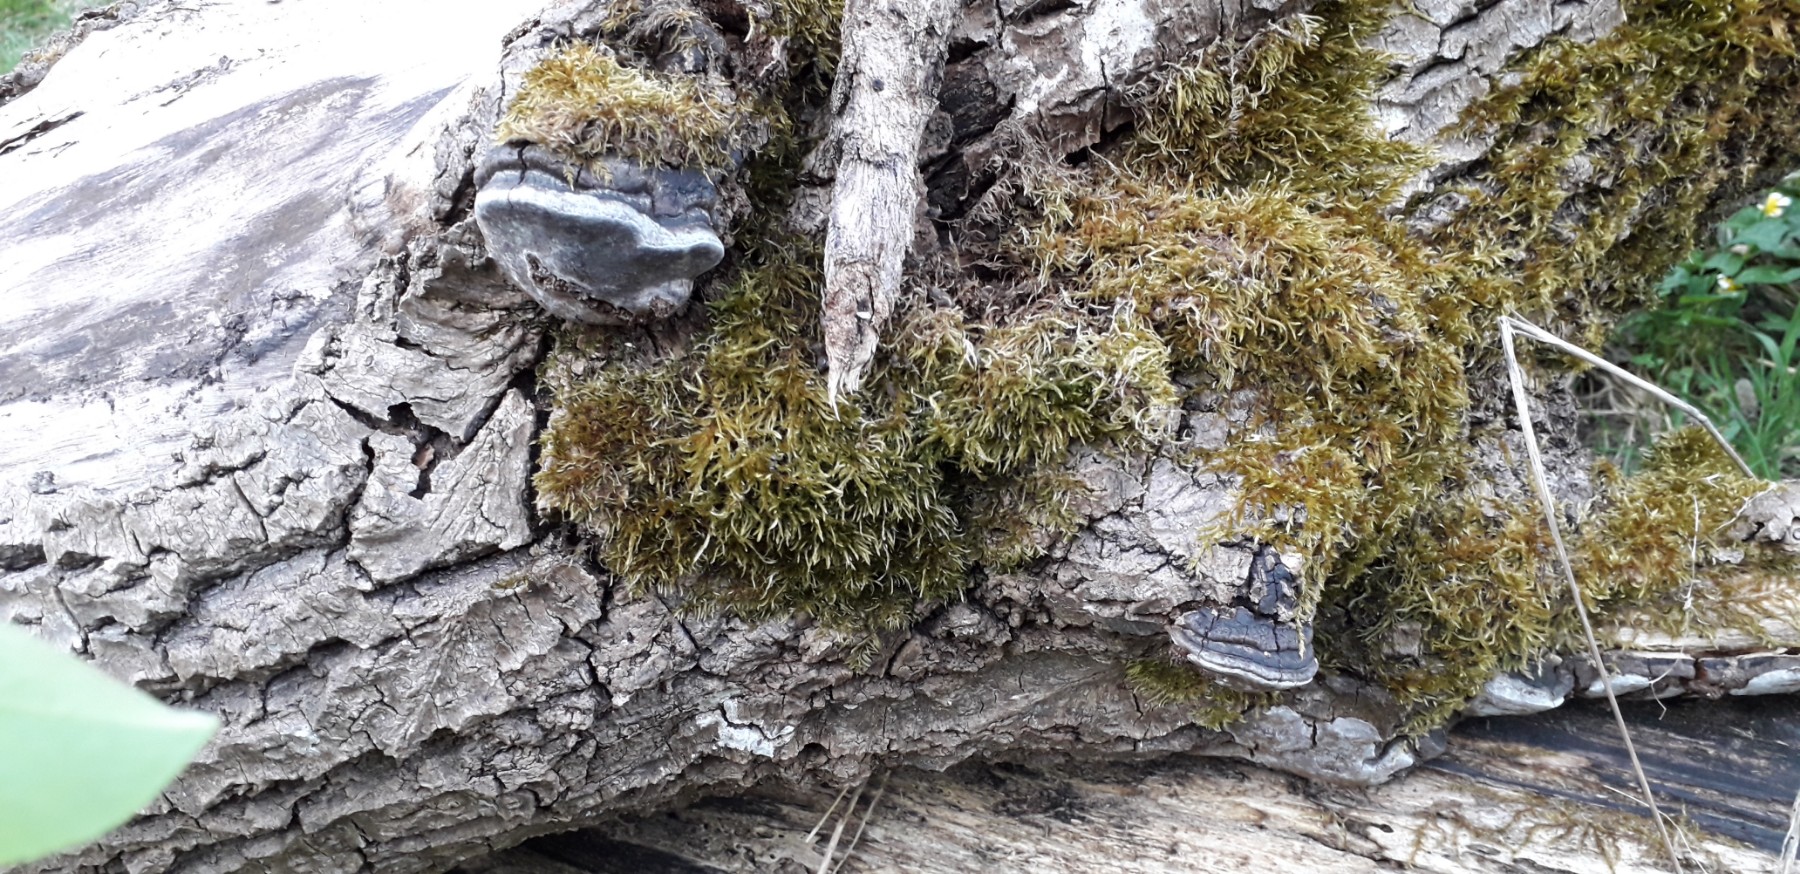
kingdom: Fungi
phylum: Basidiomycota
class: Agaricomycetes
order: Hymenochaetales
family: Hymenochaetaceae
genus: Phellinus
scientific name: Phellinus tremulae
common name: aspe-ildporesvamp
